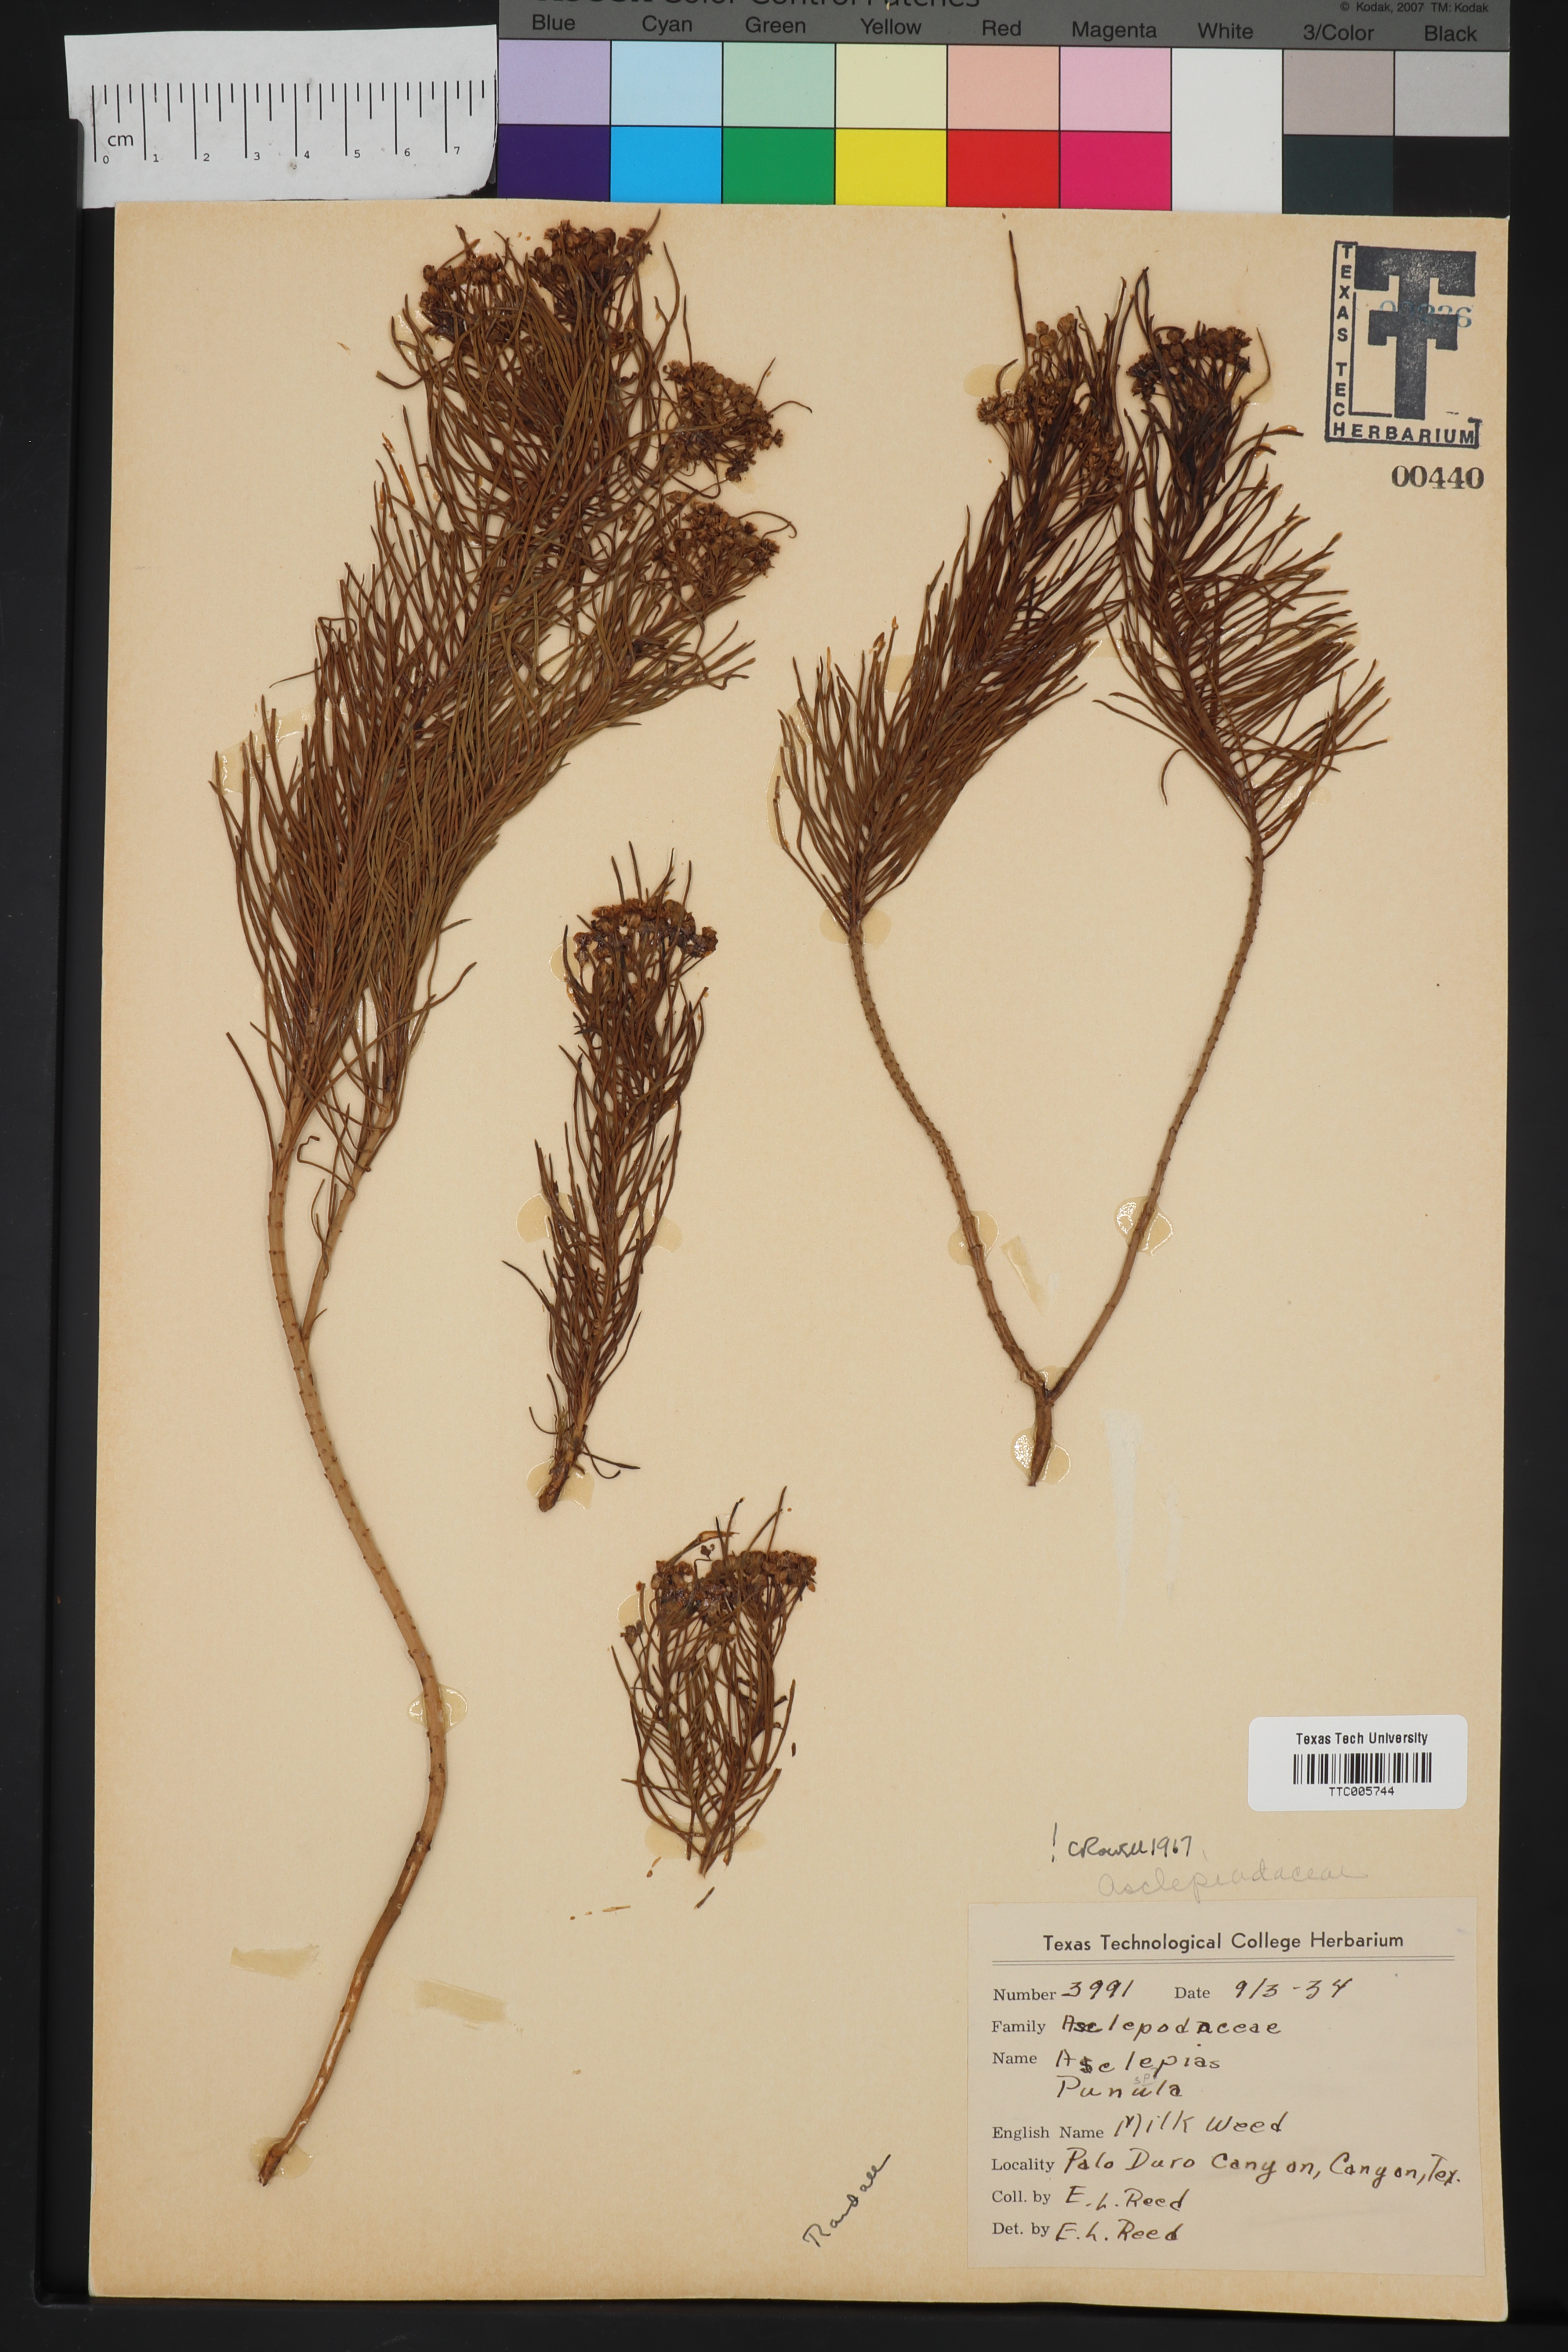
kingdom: Plantae
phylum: Tracheophyta
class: Magnoliopsida
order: Gentianales
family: Apocynaceae
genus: Asclepias
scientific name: Asclepias pumila
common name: Dwarf milkweed
